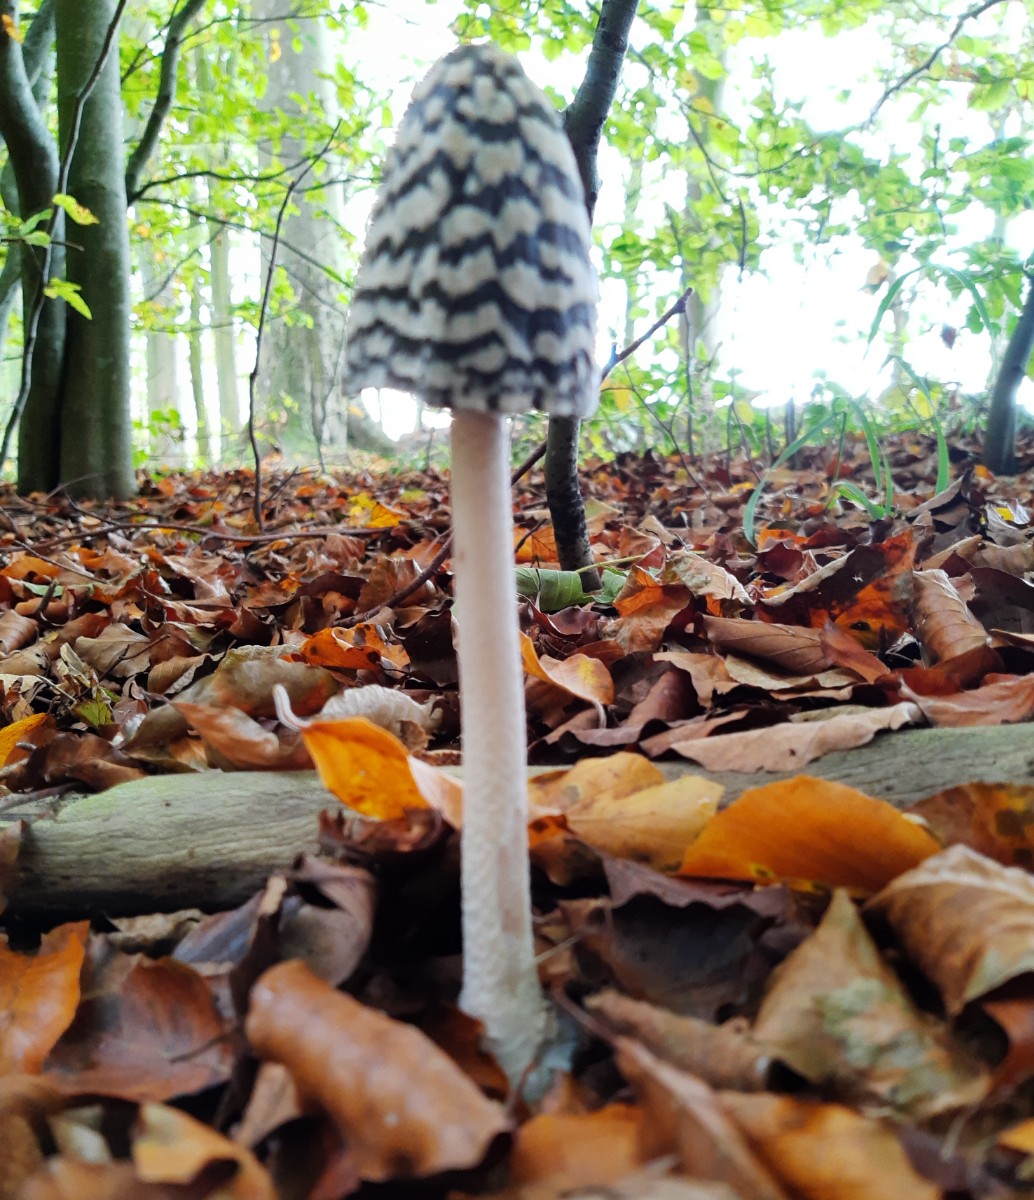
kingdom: Fungi
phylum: Basidiomycota
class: Agaricomycetes
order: Agaricales
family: Psathyrellaceae
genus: Coprinopsis
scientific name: Coprinopsis picacea
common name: skade-blækhat
